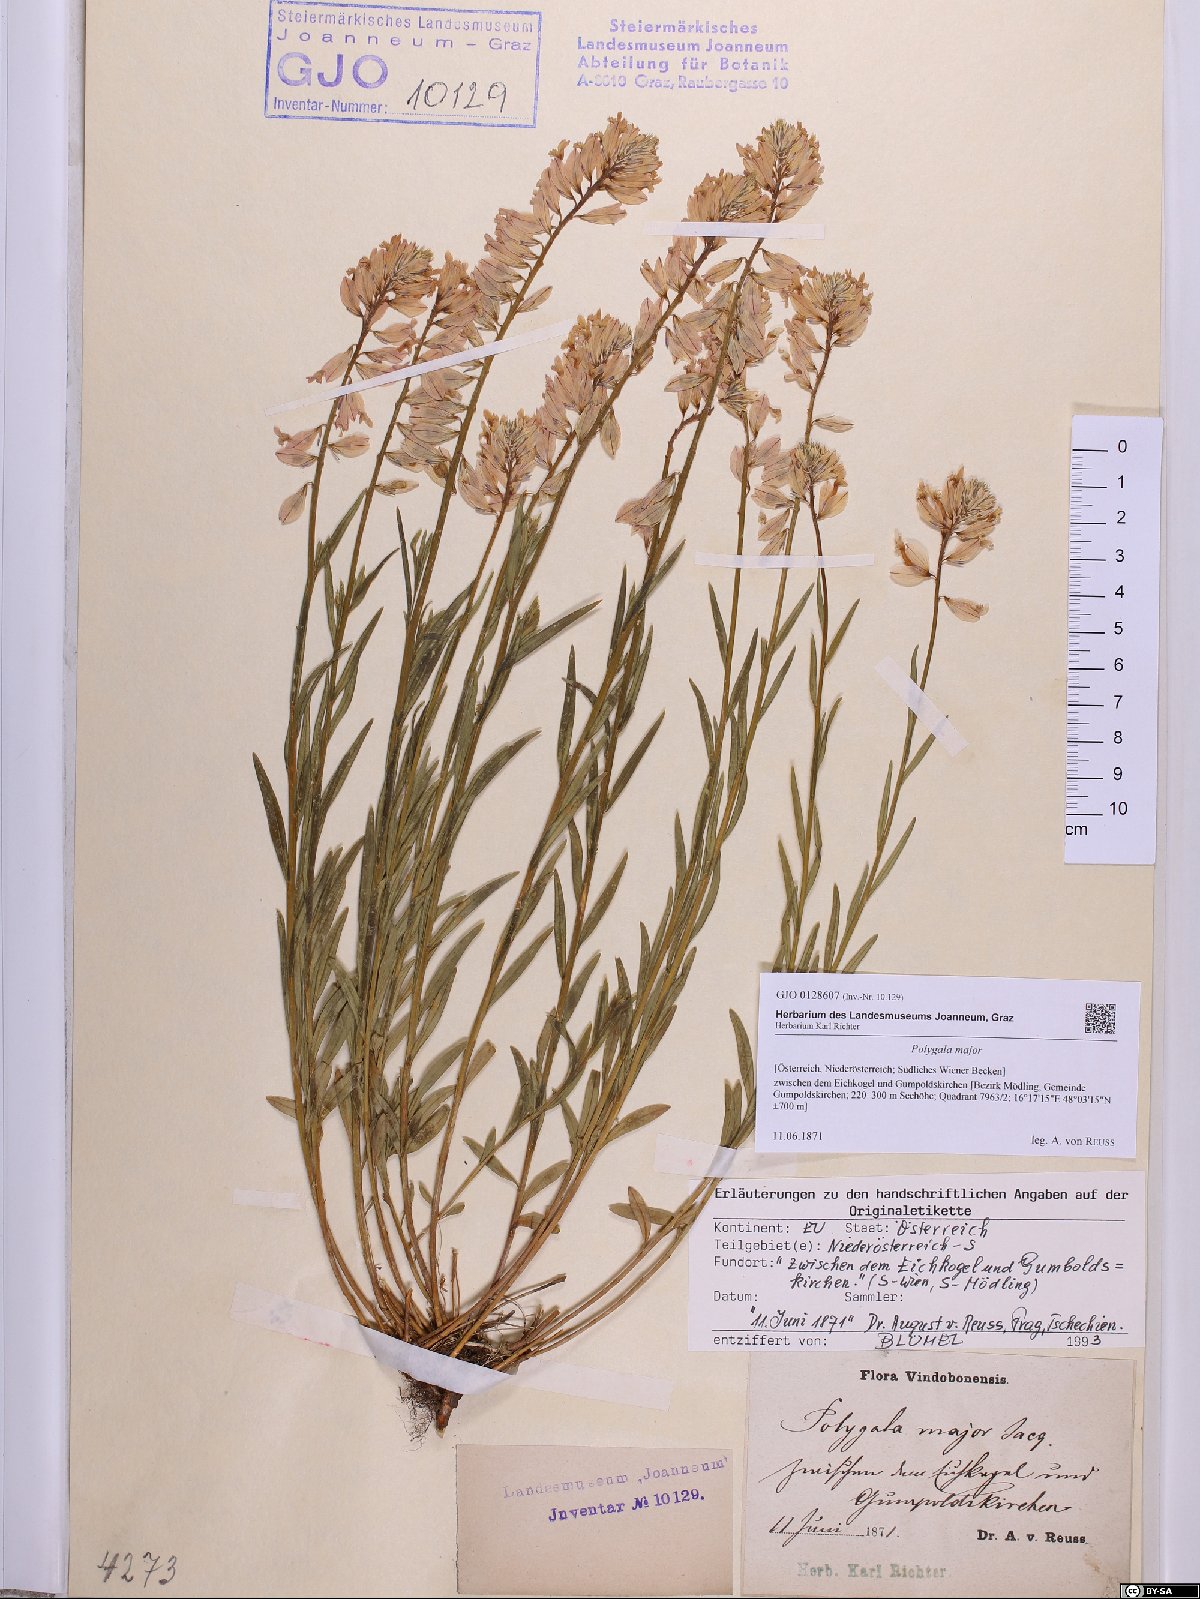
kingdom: Plantae
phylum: Tracheophyta
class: Magnoliopsida
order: Fabales
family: Polygalaceae
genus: Polygala
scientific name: Polygala major
